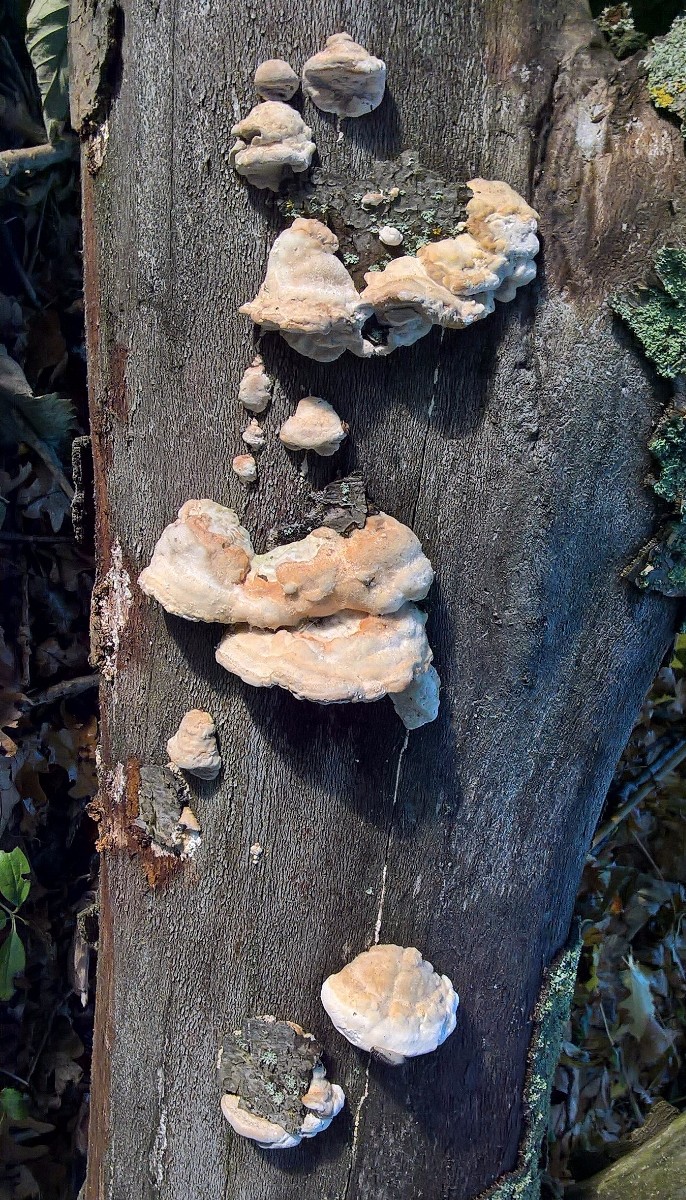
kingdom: Fungi
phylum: Basidiomycota
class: Agaricomycetes
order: Polyporales
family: Polyporaceae
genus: Trametes
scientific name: Trametes hirsuta
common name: håret læderporesvamp
